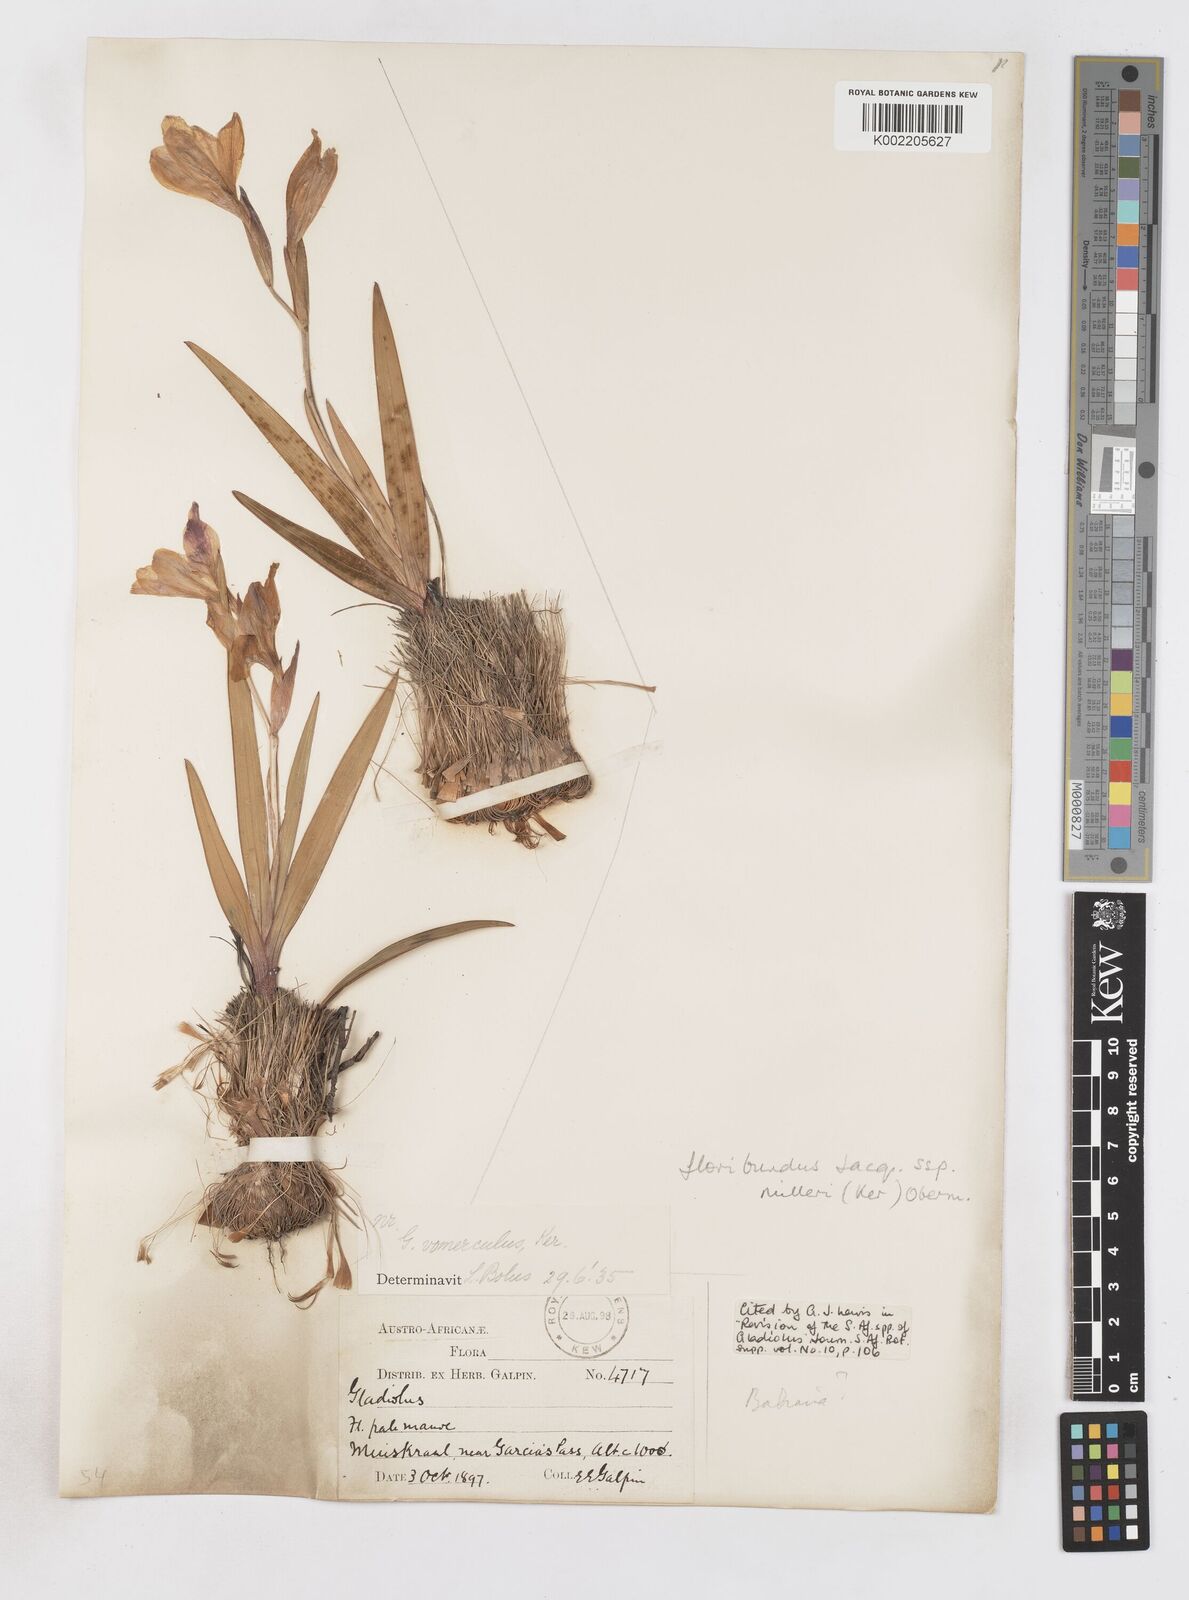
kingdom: Plantae
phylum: Tracheophyta
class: Liliopsida
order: Asparagales
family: Iridaceae
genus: Gladiolus
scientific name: Gladiolus grandiflorus
